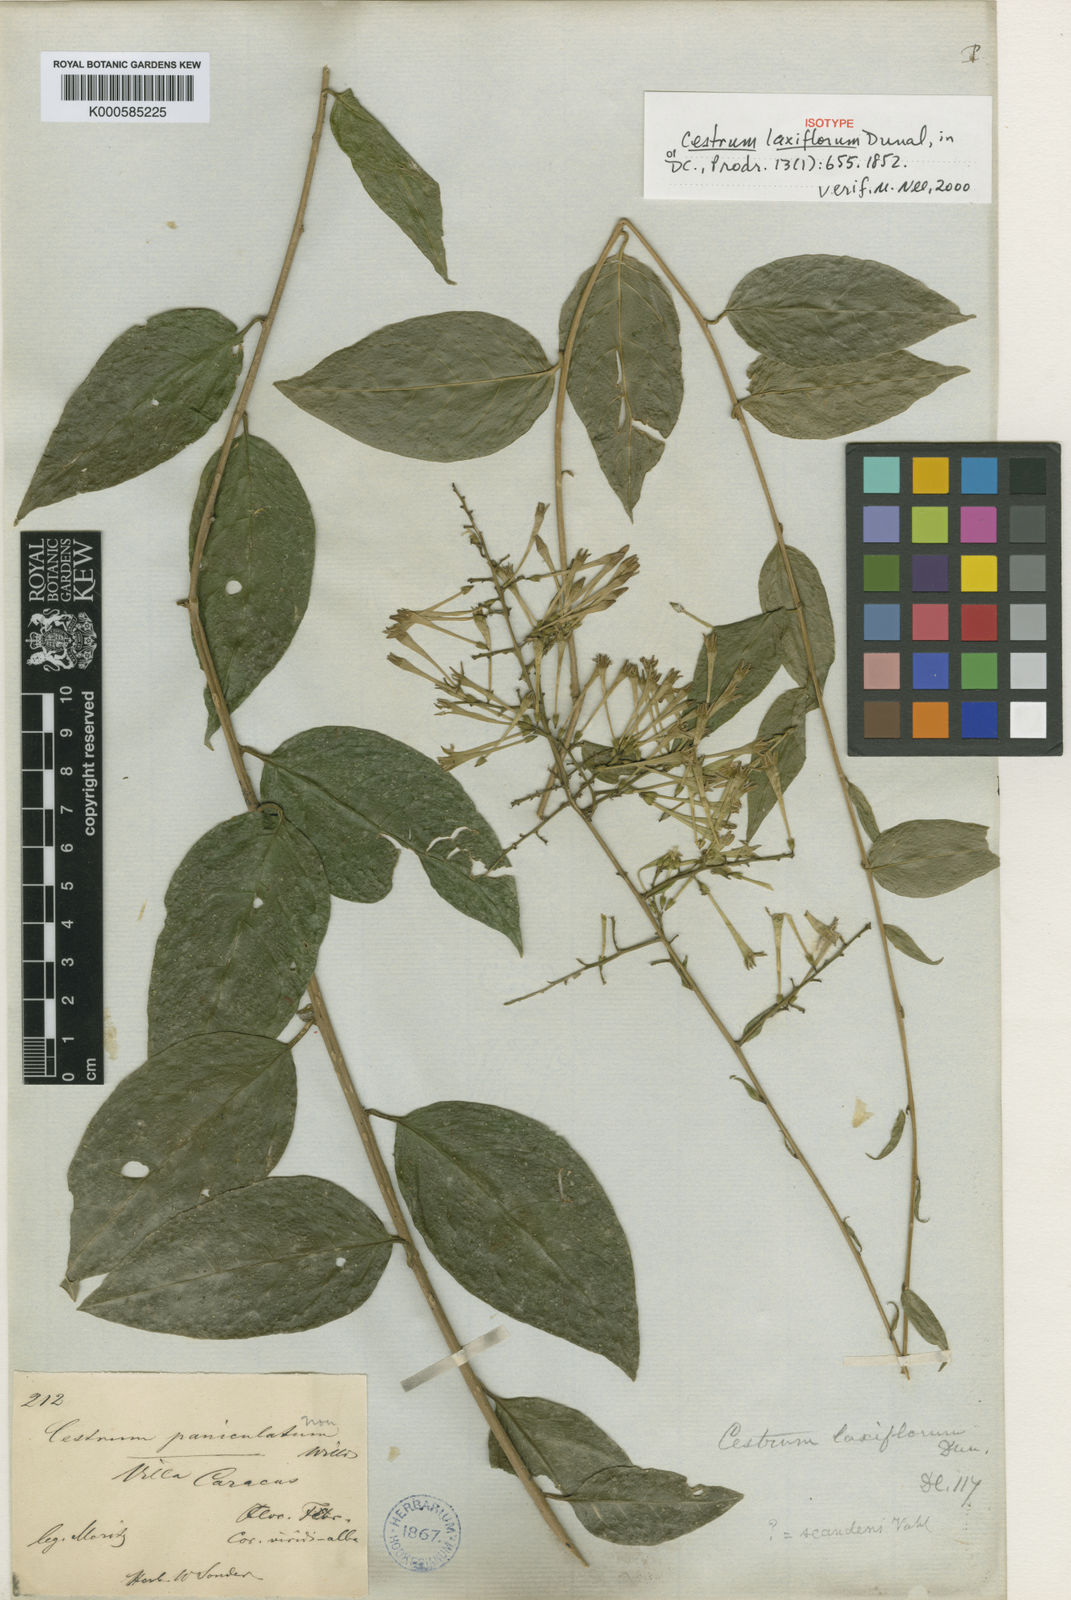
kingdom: Plantae
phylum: Tracheophyta
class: Magnoliopsida
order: Solanales
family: Solanaceae
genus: Cestrum
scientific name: Cestrum scandens
